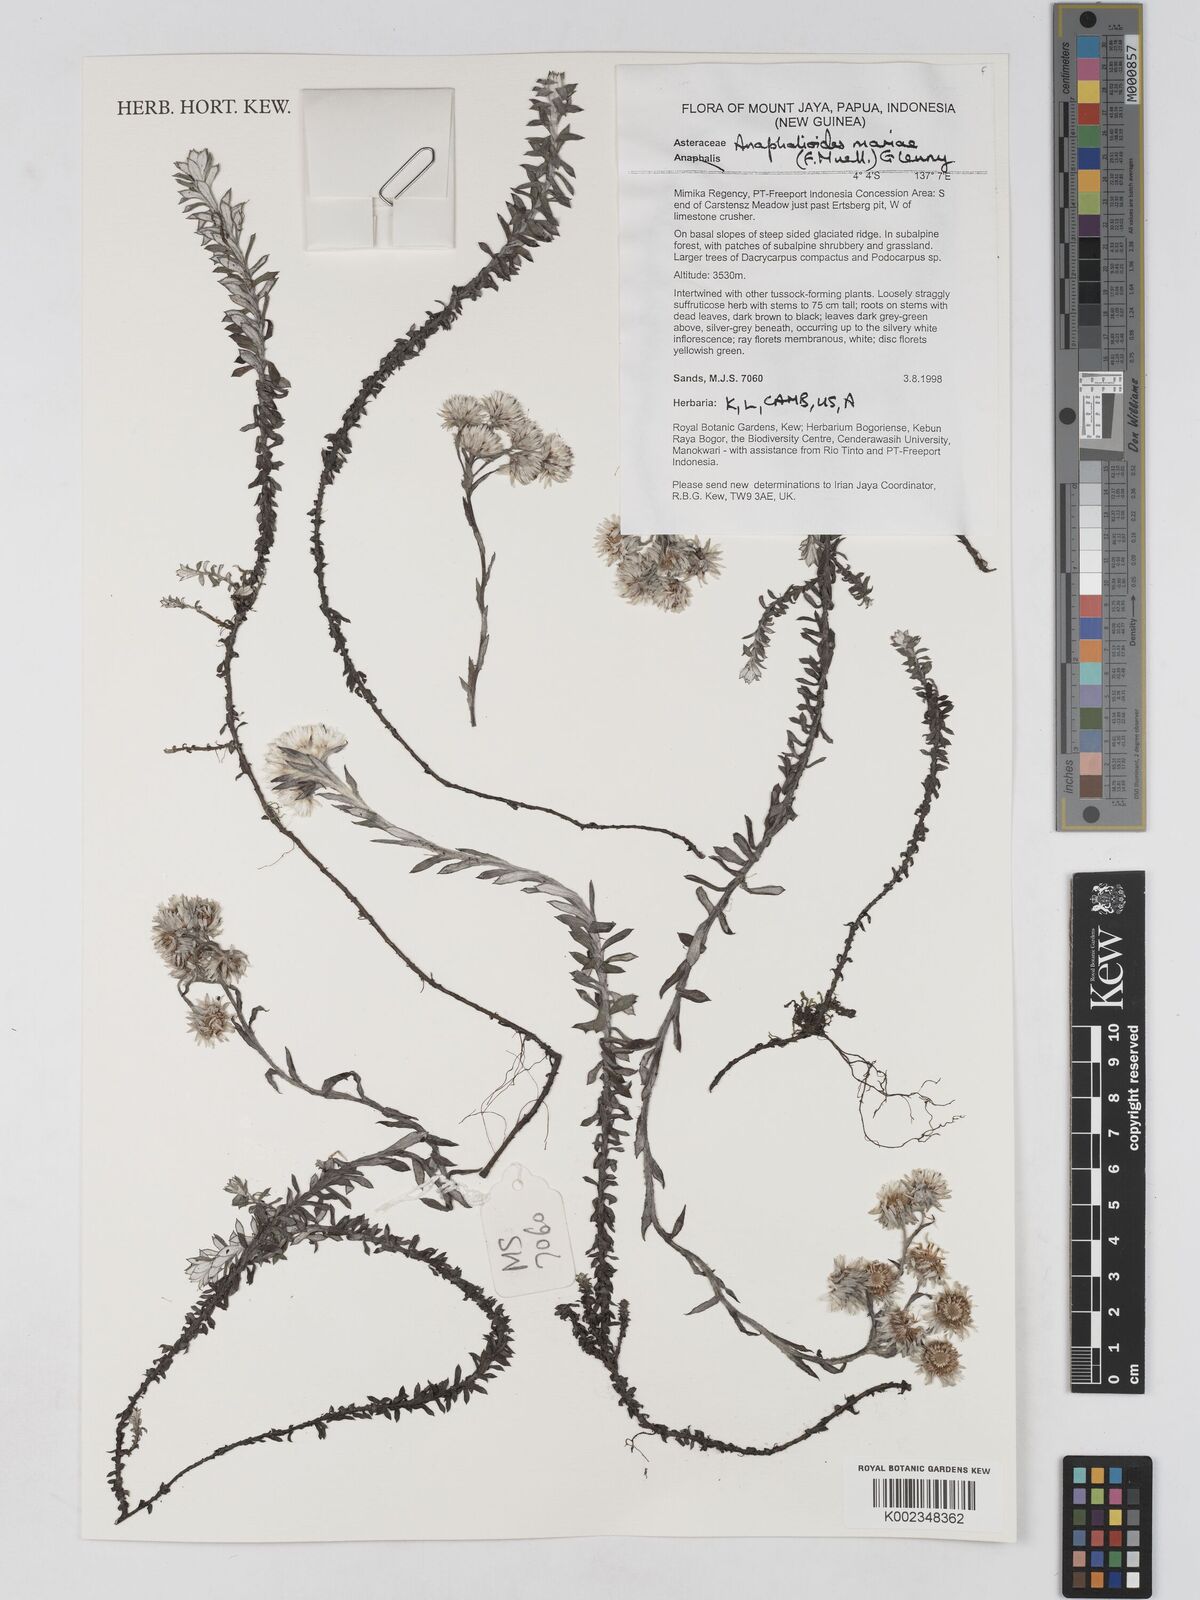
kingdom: Plantae
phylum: Tracheophyta
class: Magnoliopsida
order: Asterales
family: Asteraceae
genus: Anaphalioides
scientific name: Anaphalioides mariae
